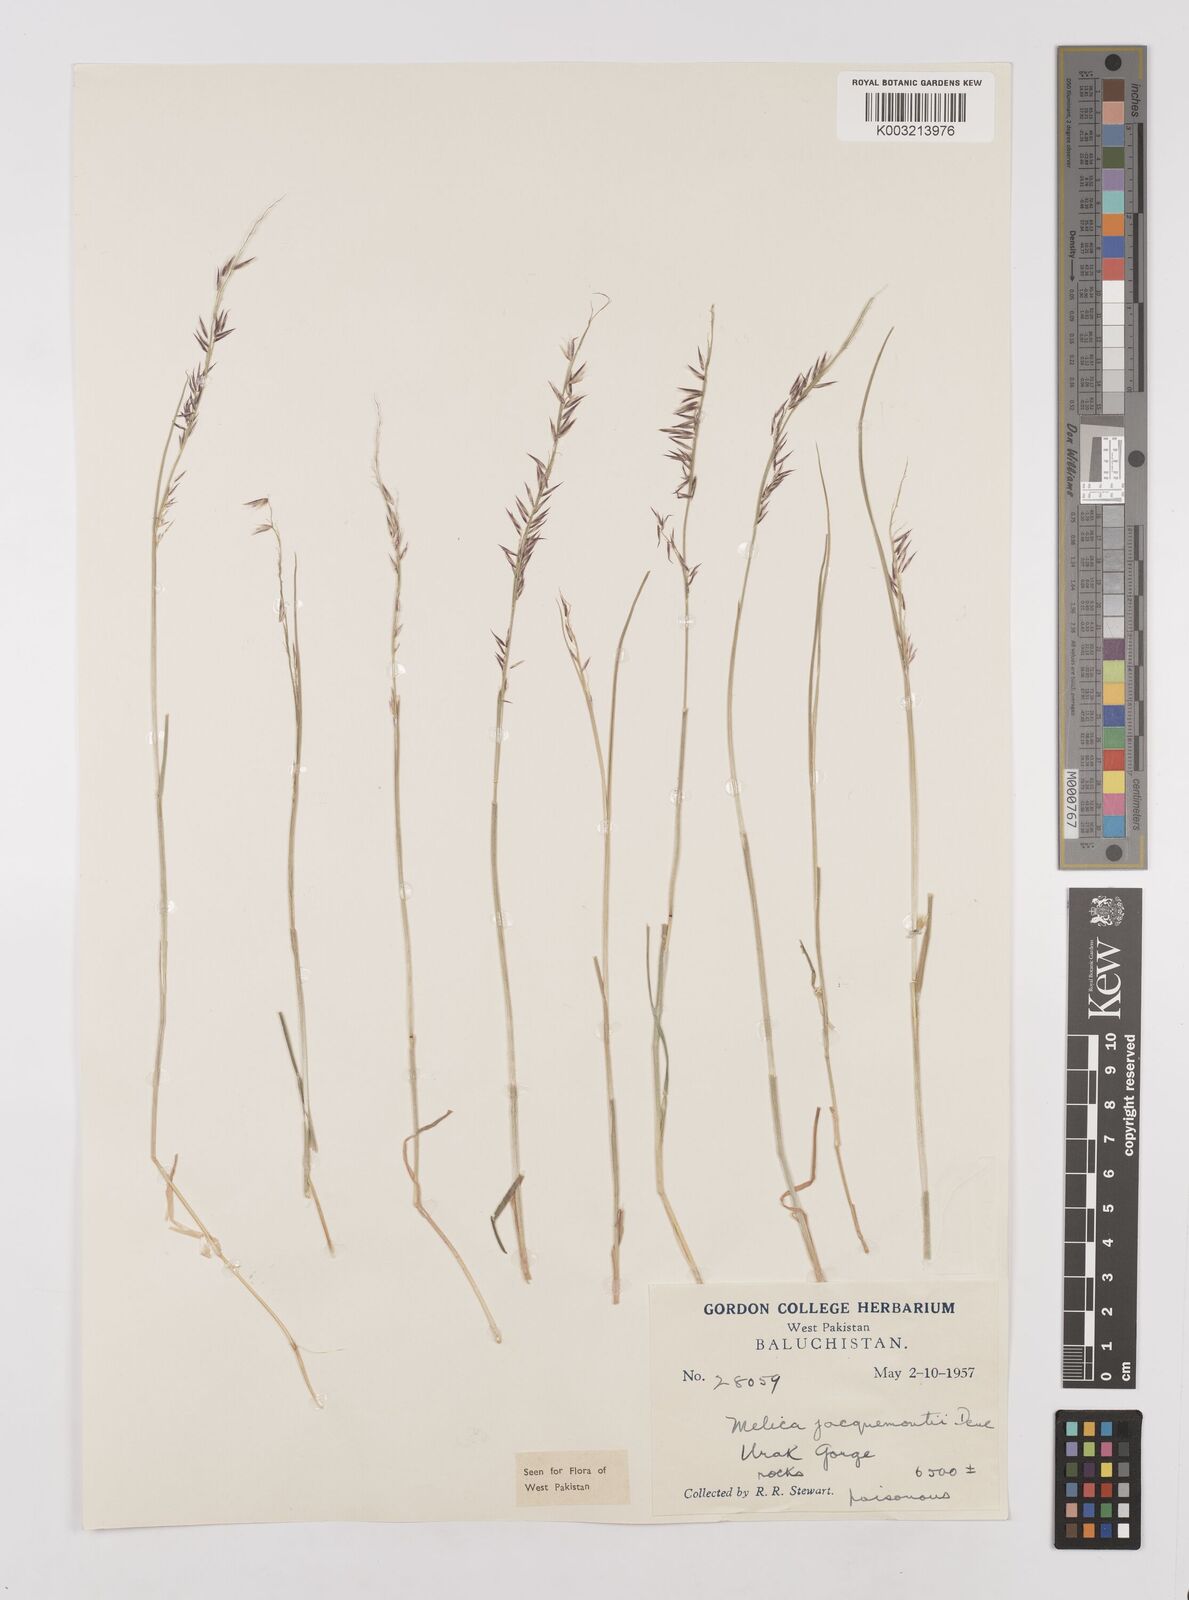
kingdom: Plantae
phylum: Tracheophyta
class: Liliopsida
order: Poales
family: Poaceae
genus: Melica
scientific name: Melica persica
